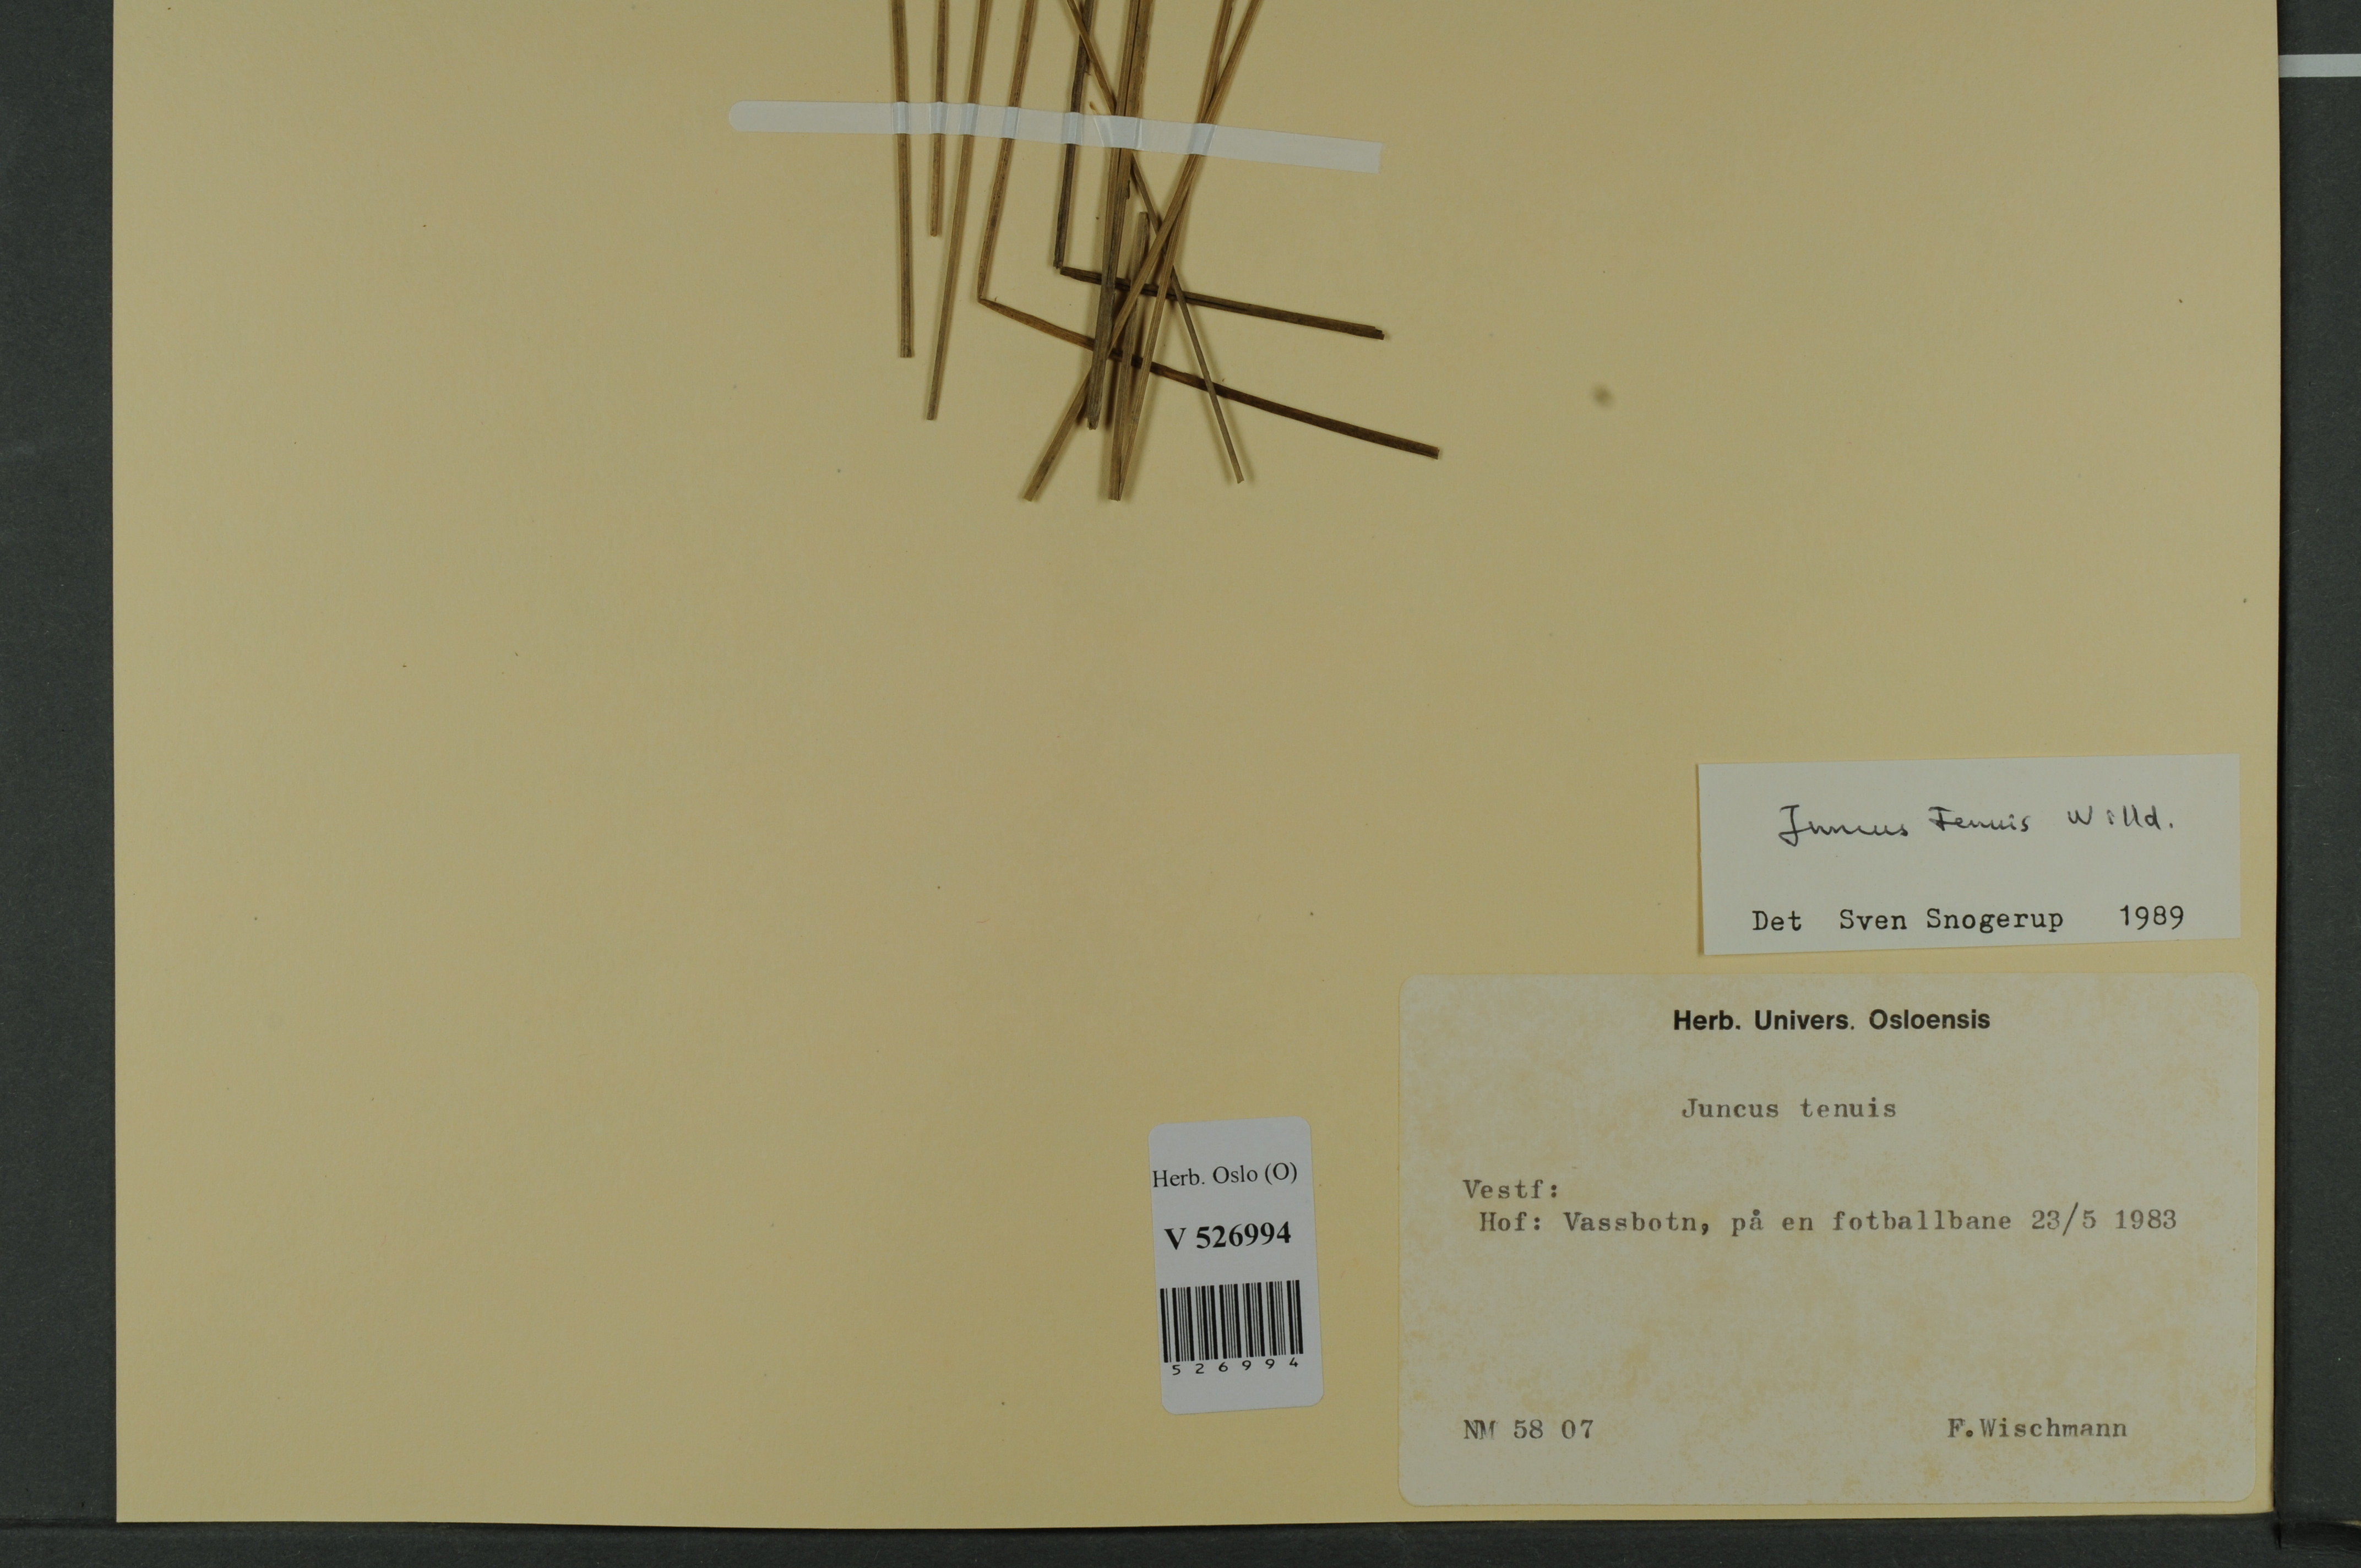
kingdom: Plantae
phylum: Tracheophyta
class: Liliopsida
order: Poales
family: Juncaceae
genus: Juncus
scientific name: Juncus tenuis
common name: Slender rush
